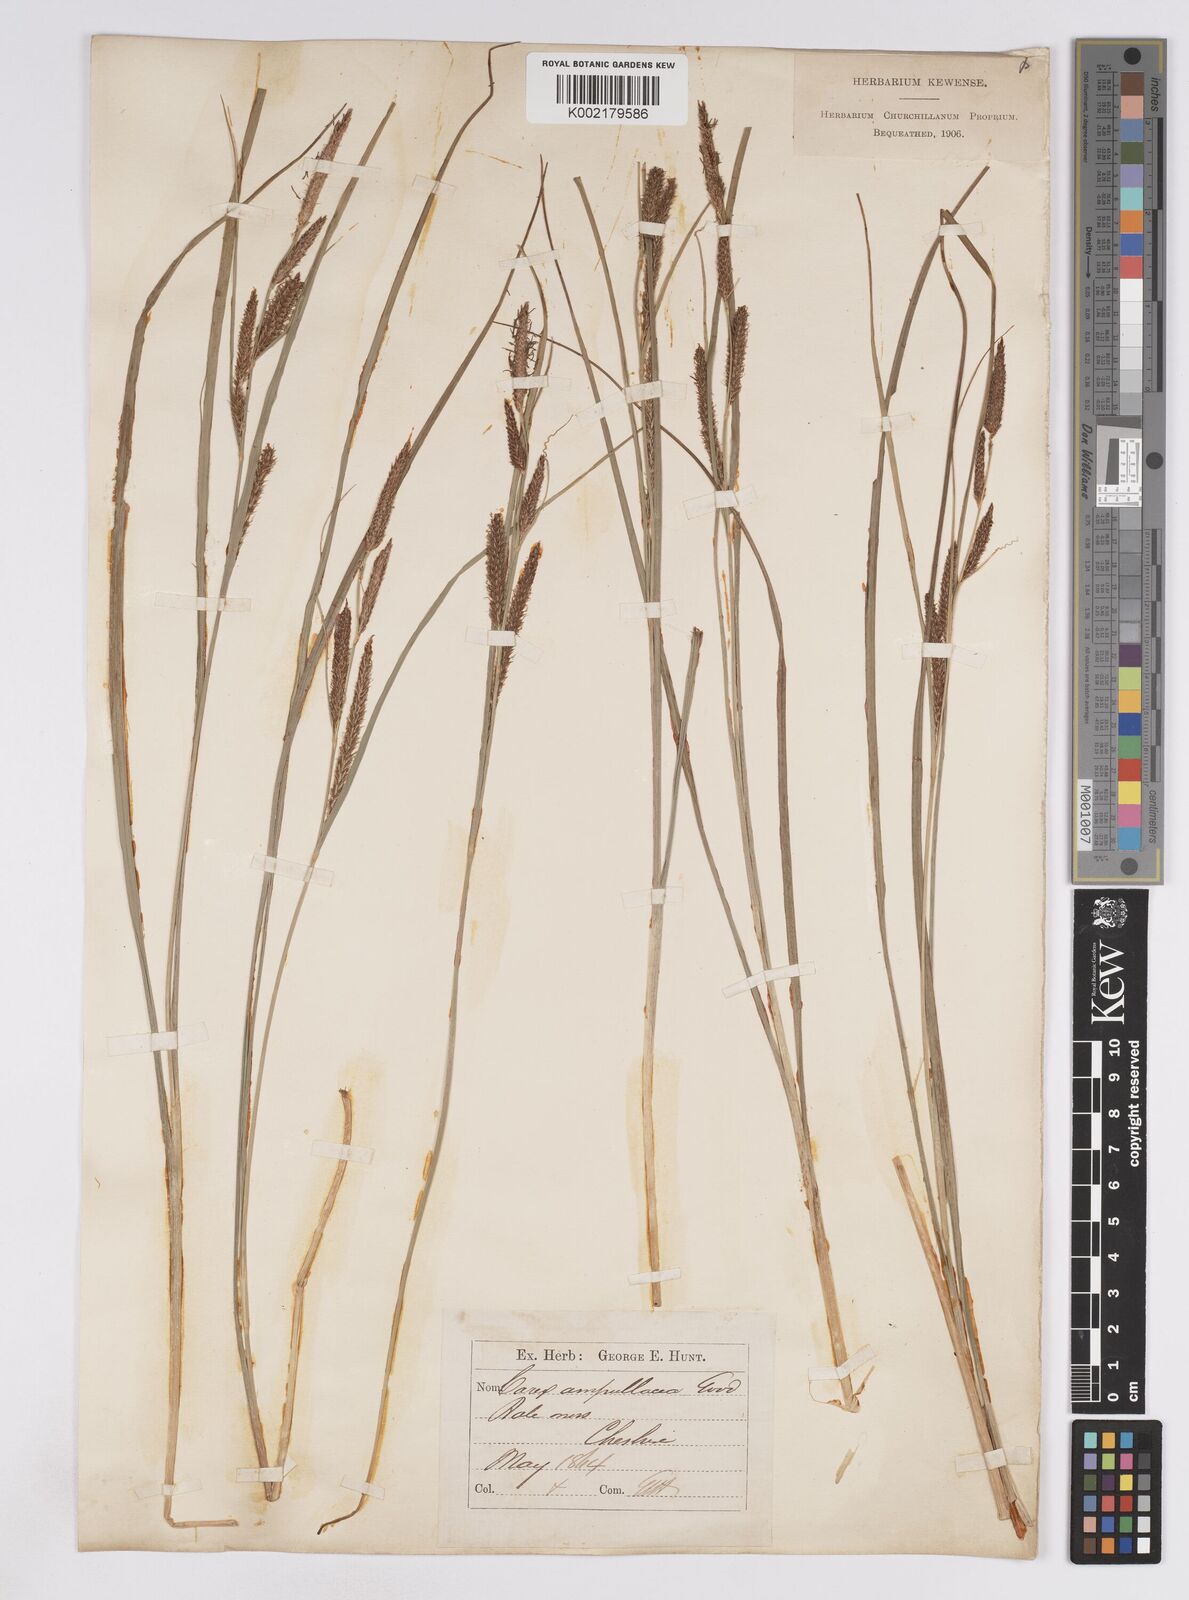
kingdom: Plantae
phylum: Tracheophyta
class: Liliopsida
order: Poales
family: Cyperaceae
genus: Carex
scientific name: Carex rostrata
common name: Bottle sedge
